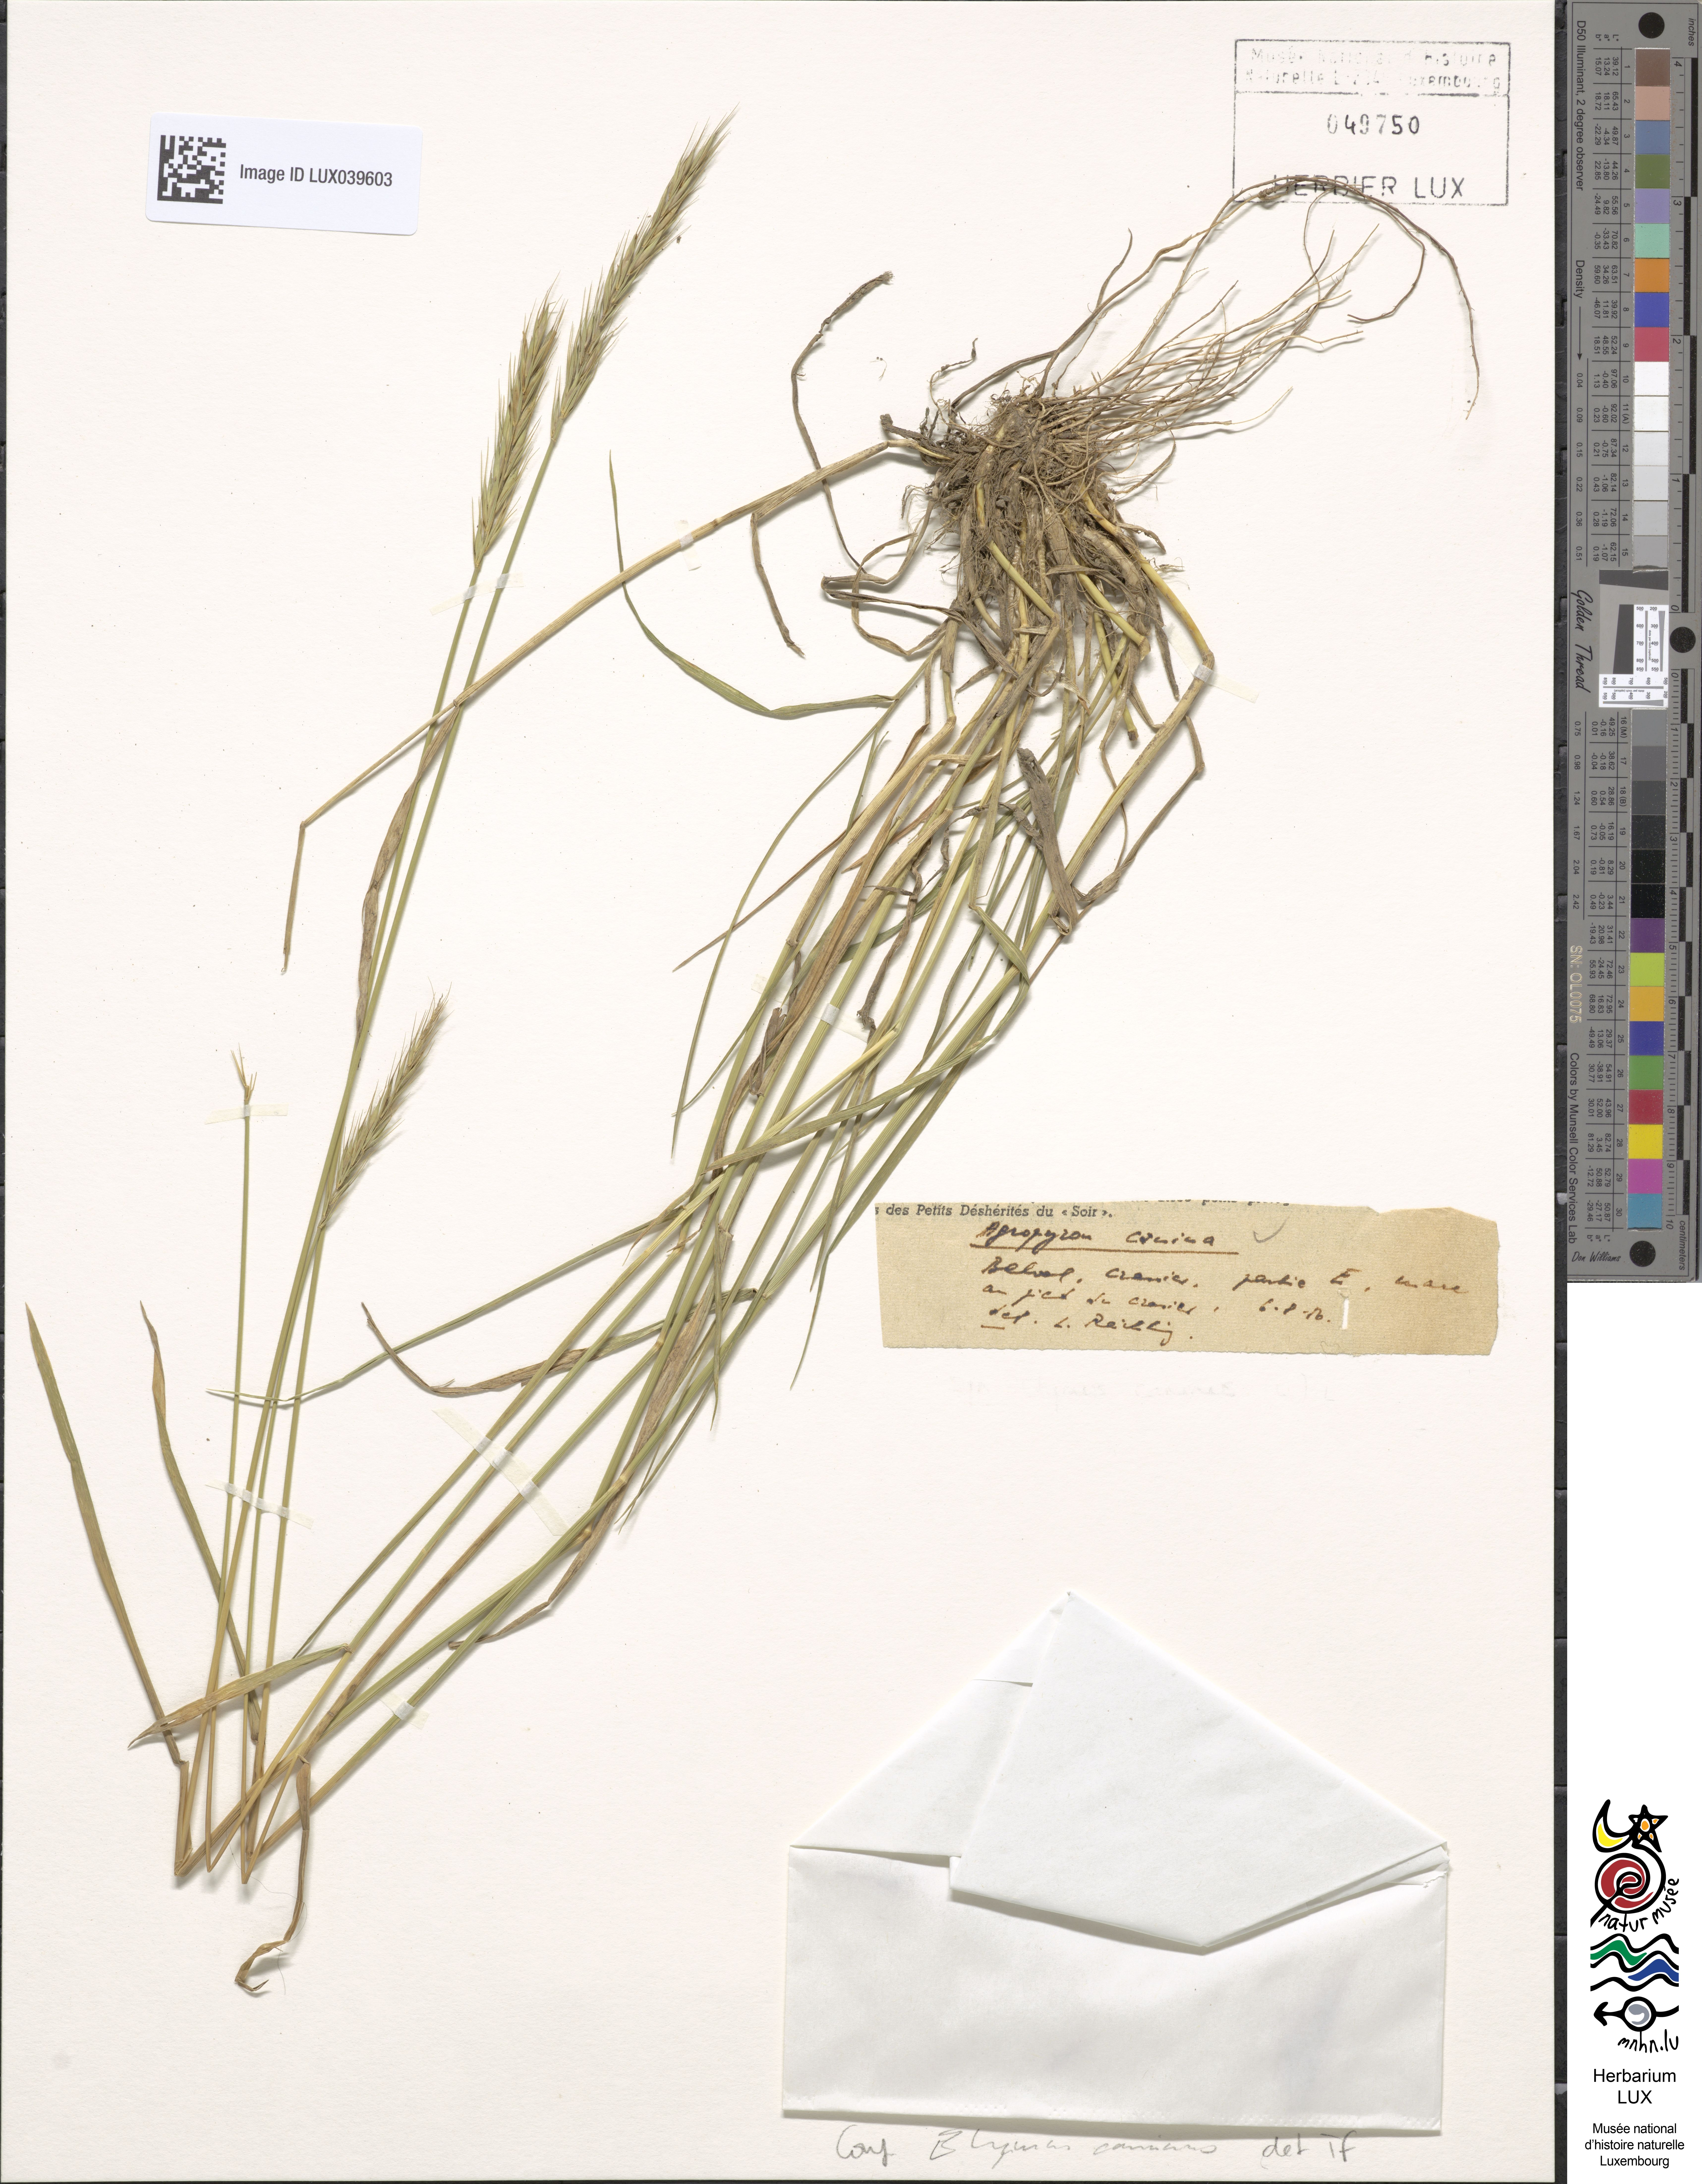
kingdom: Plantae
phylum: Tracheophyta
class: Liliopsida
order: Poales
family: Poaceae
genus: Elymus
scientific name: Elymus caninus
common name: Bearded couch
